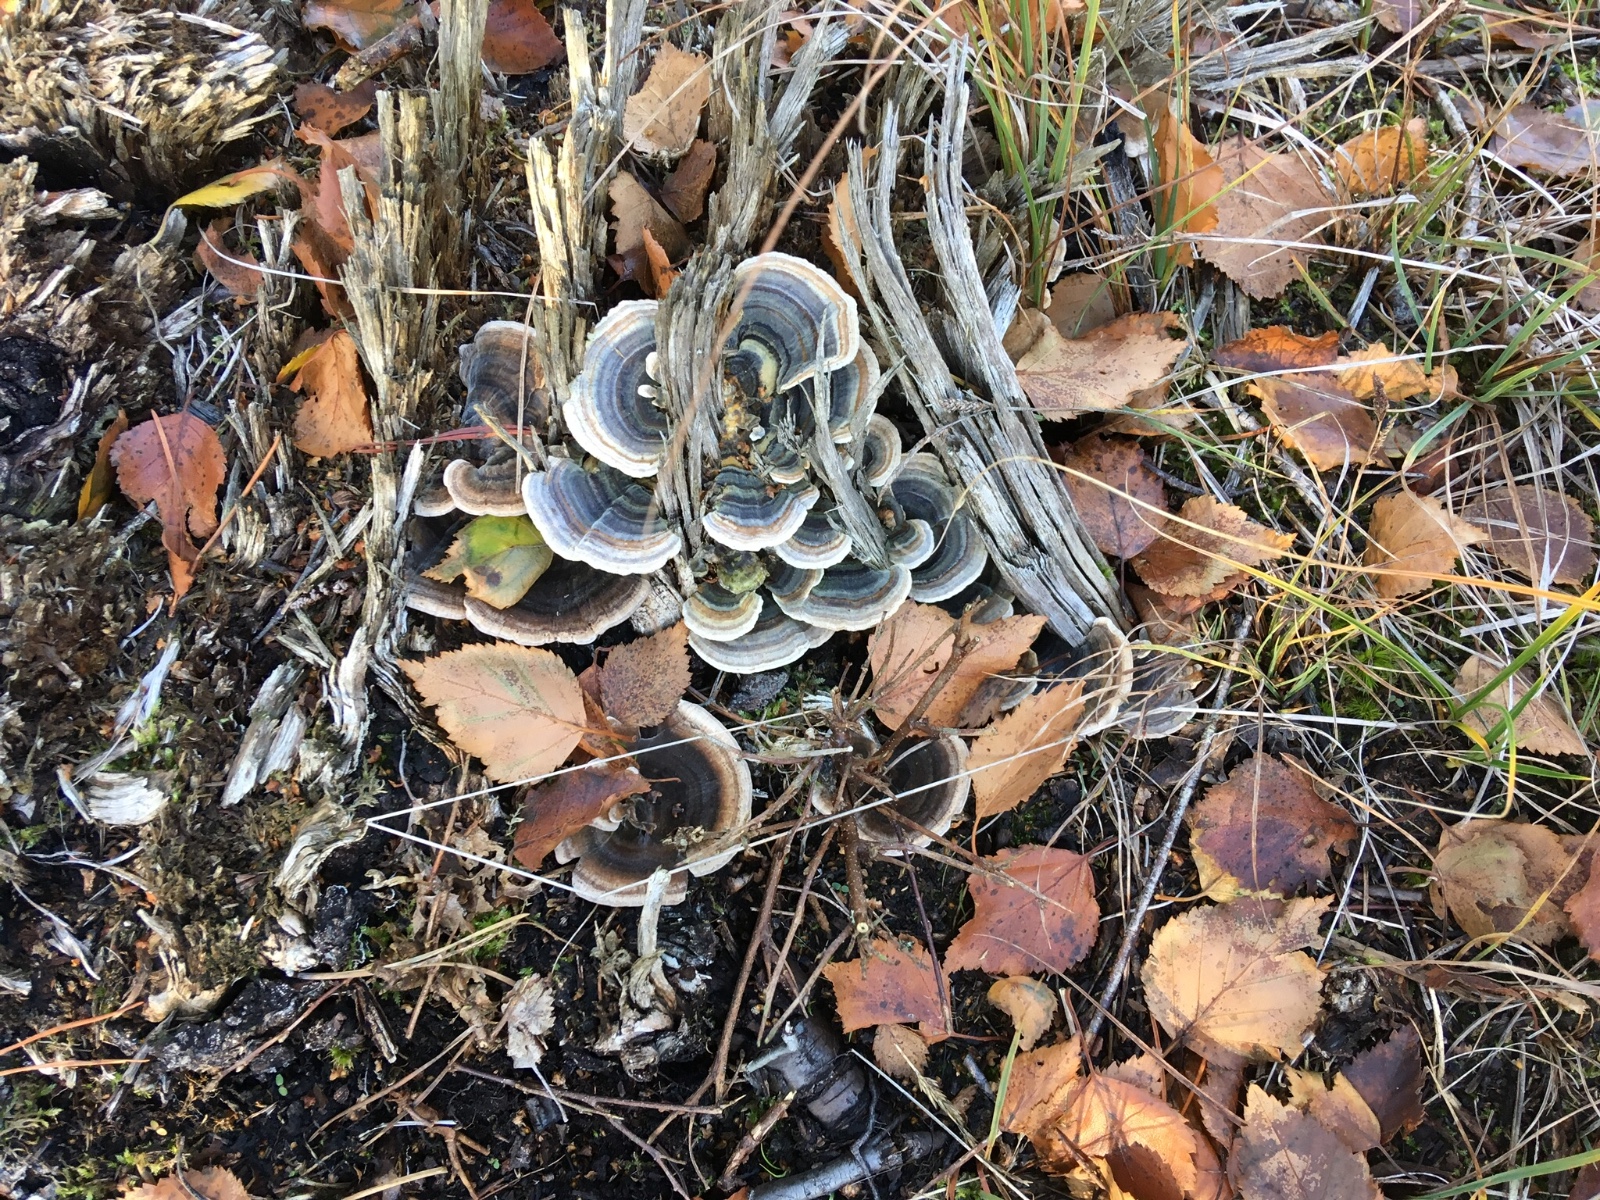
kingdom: Fungi
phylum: Basidiomycota
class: Agaricomycetes
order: Polyporales
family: Polyporaceae
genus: Trametes
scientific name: Trametes versicolor
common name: broget læderporesvamp
